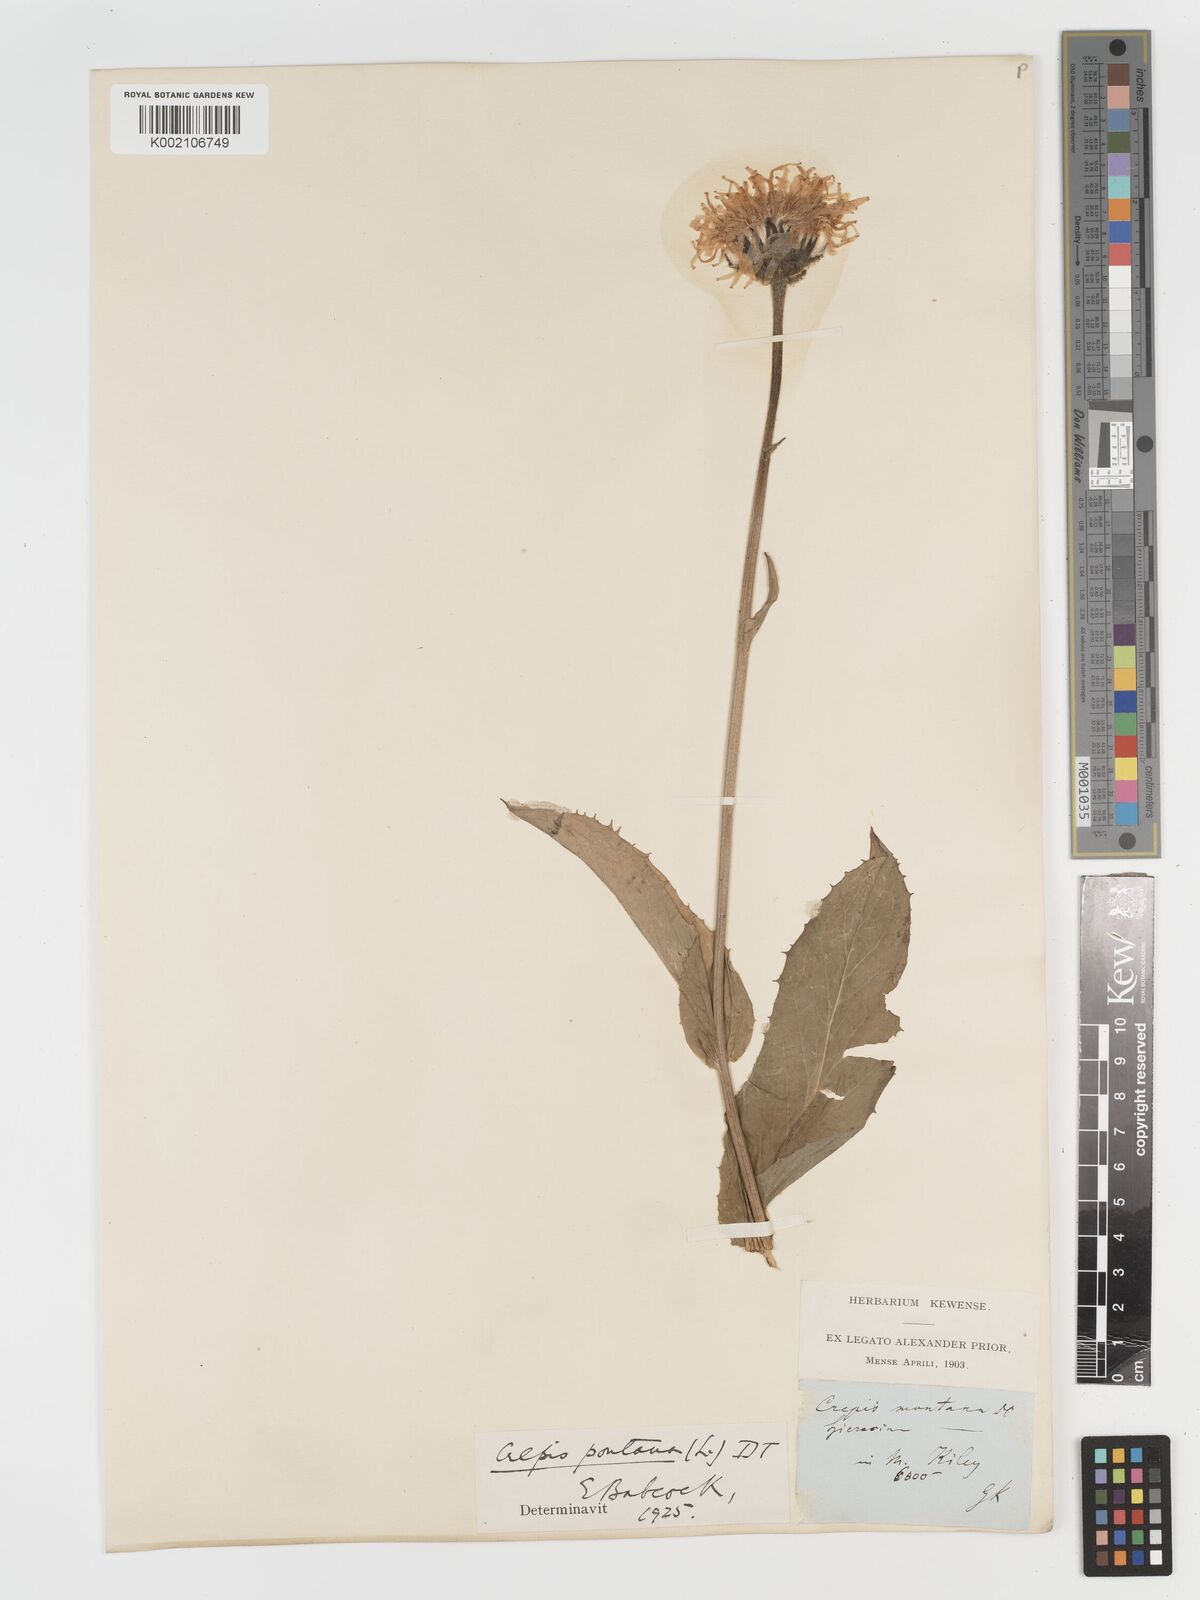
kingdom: Plantae
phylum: Tracheophyta
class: Magnoliopsida
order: Asterales
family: Asteraceae
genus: Crepis
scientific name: Crepis pontana
